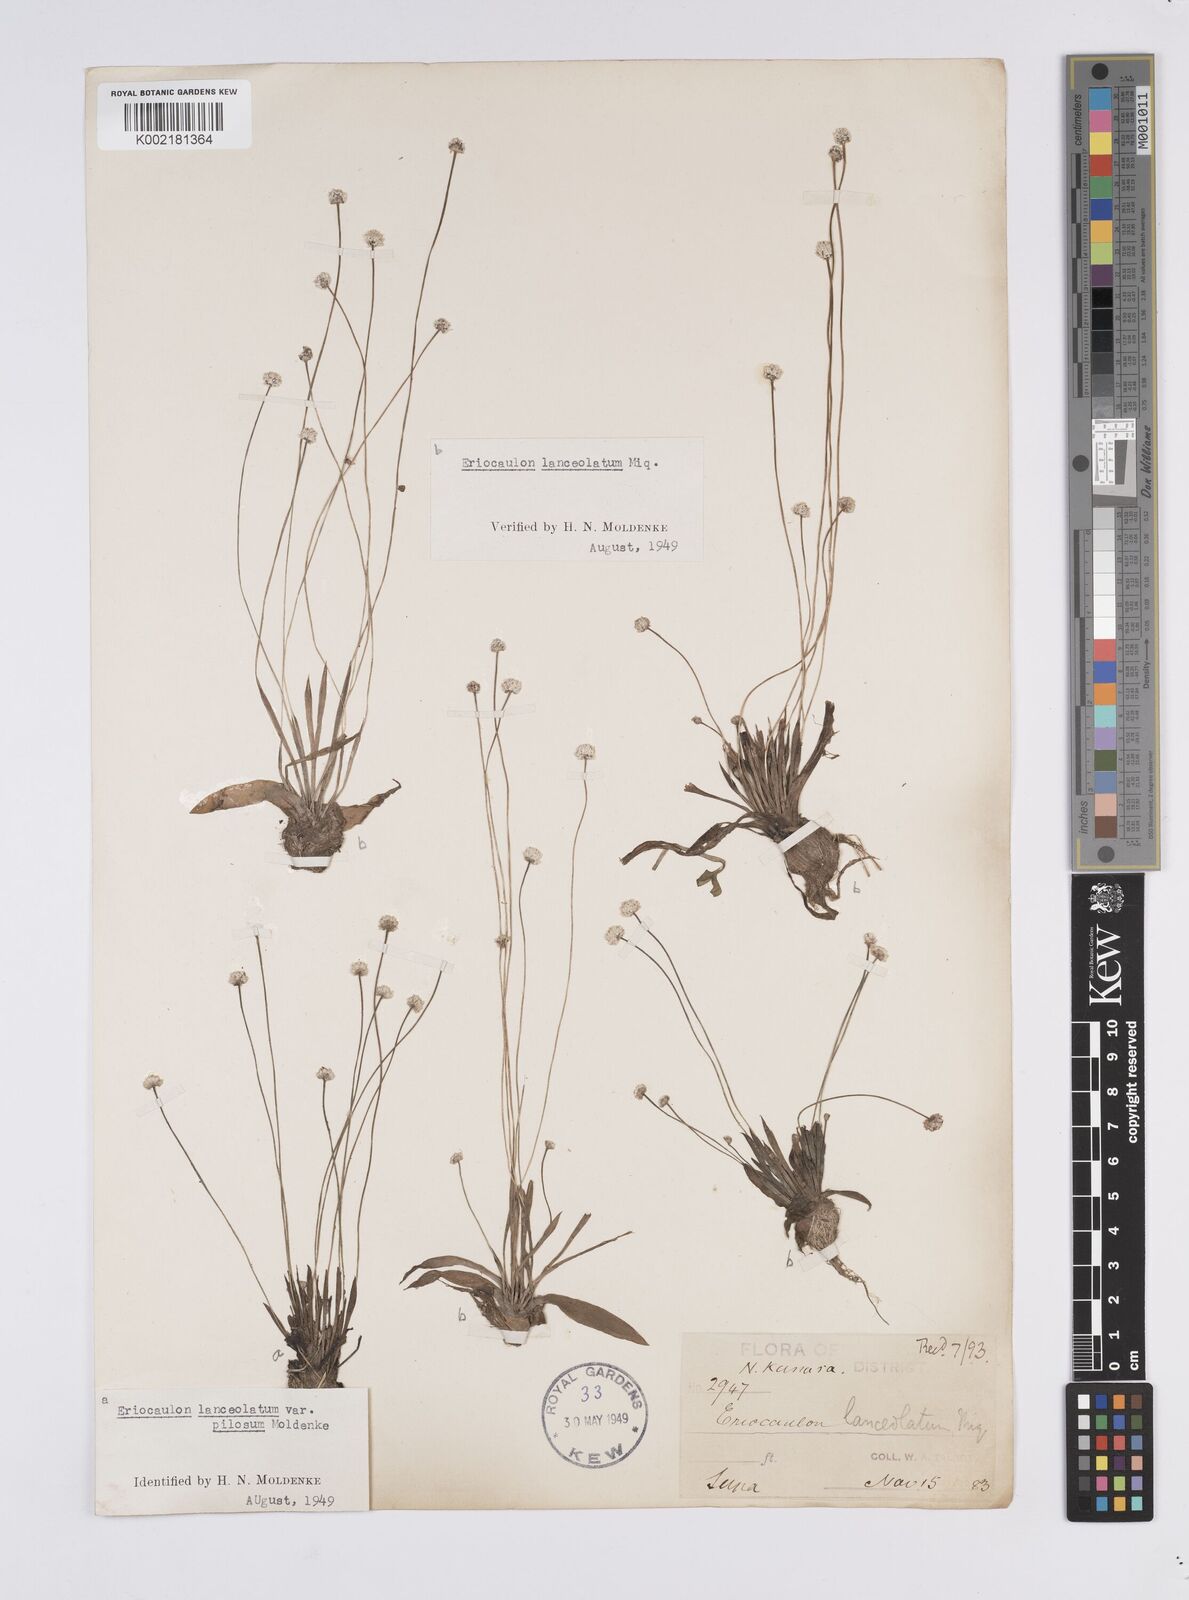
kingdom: Plantae
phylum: Tracheophyta
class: Liliopsida
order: Poales
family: Eriocaulaceae
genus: Eriocaulon
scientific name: Eriocaulon lanceolatum
